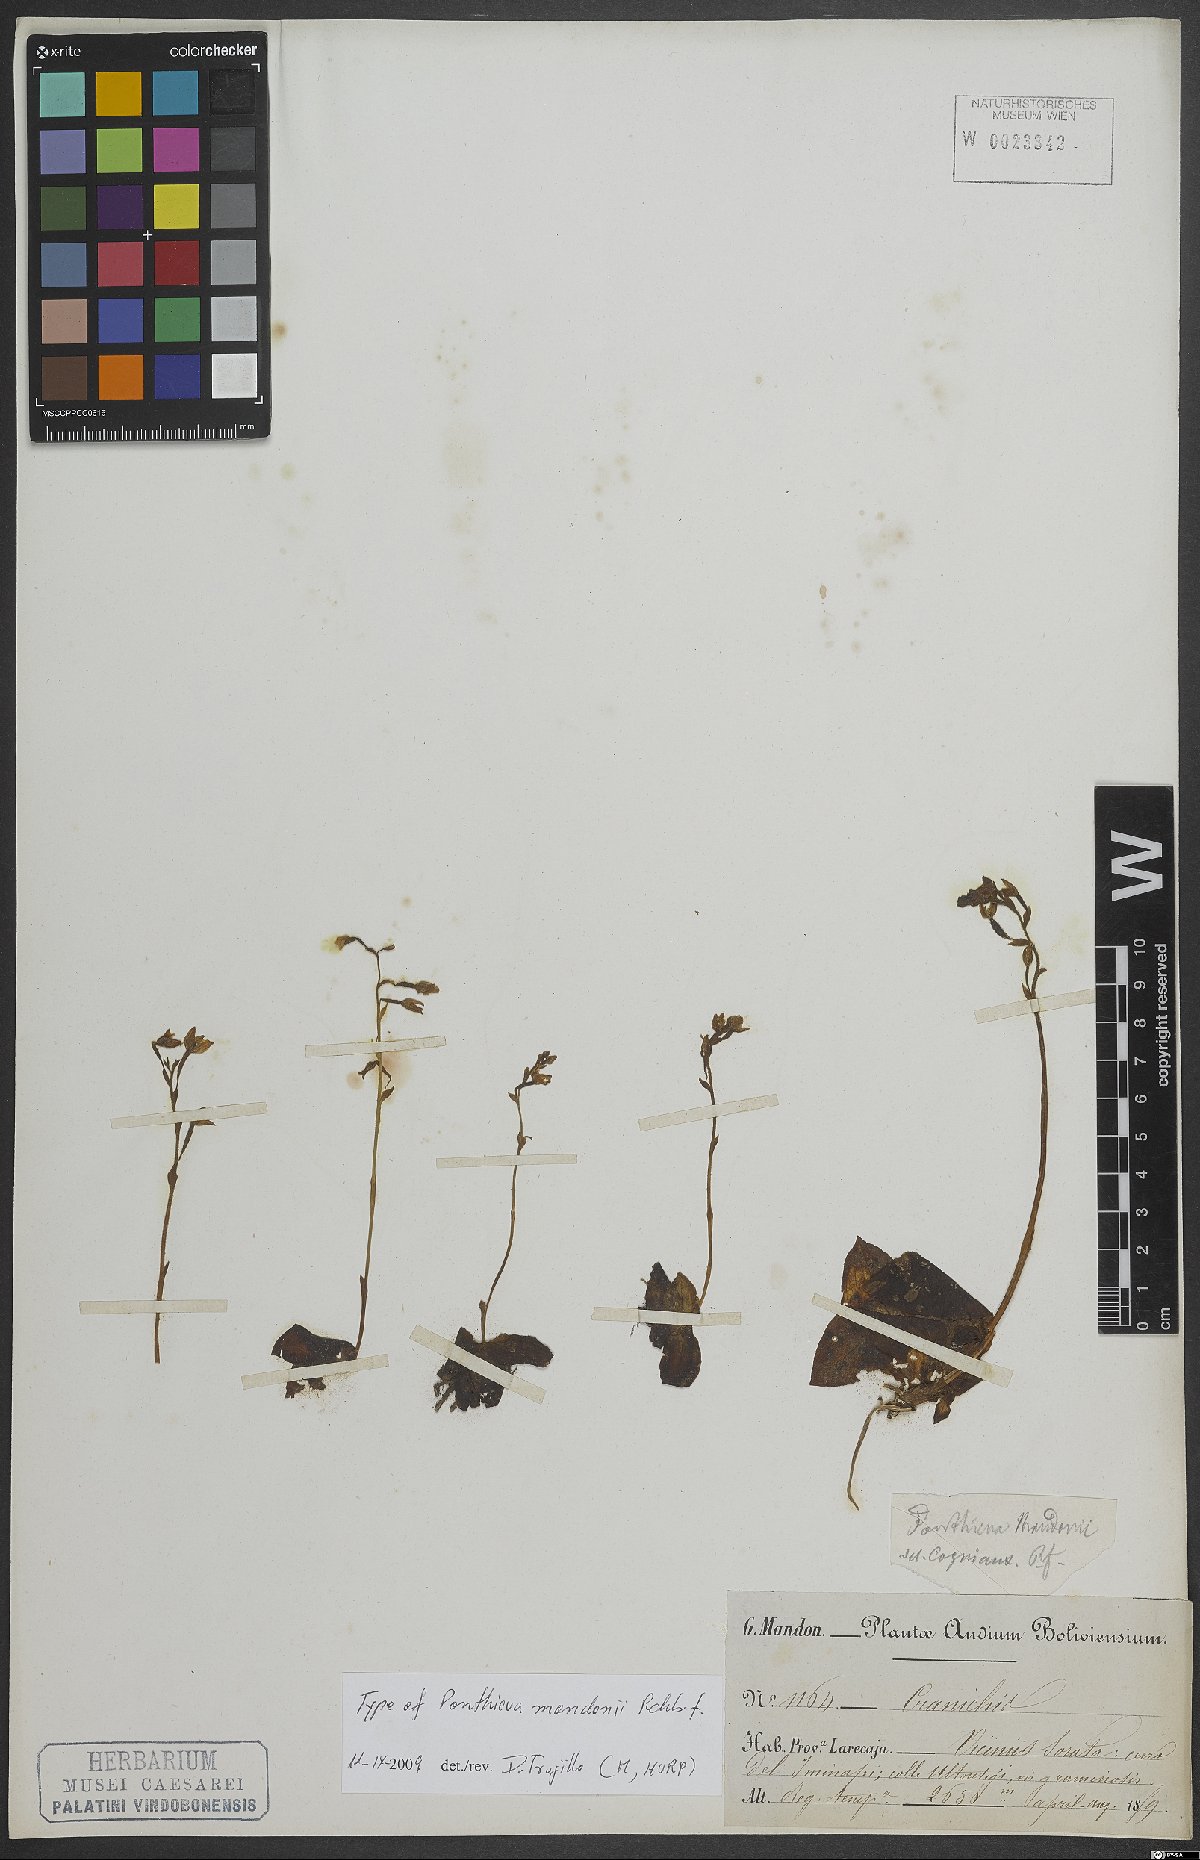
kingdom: Plantae
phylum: Tracheophyta
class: Liliopsida
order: Asparagales
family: Orchidaceae
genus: Ponthieva
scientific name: Ponthieva mandonii
